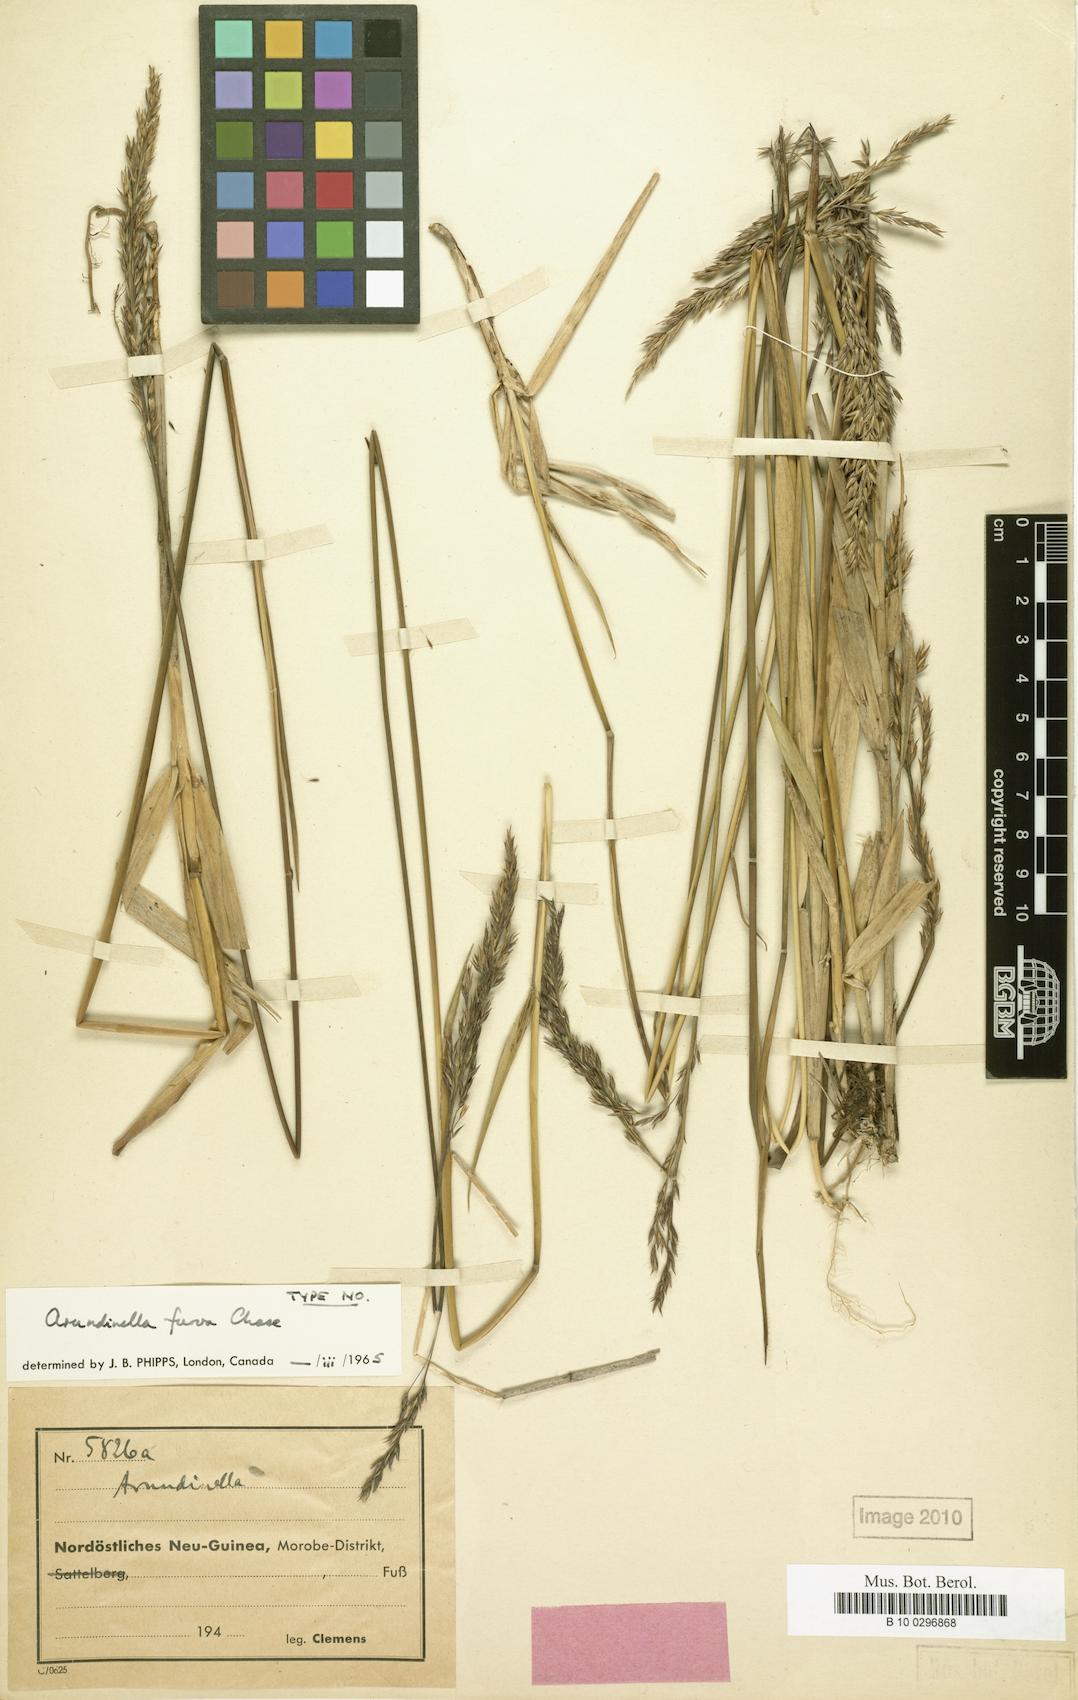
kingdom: Plantae
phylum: Tracheophyta
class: Liliopsida
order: Poales
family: Poaceae
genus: Arundinella
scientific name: Arundinella furva
